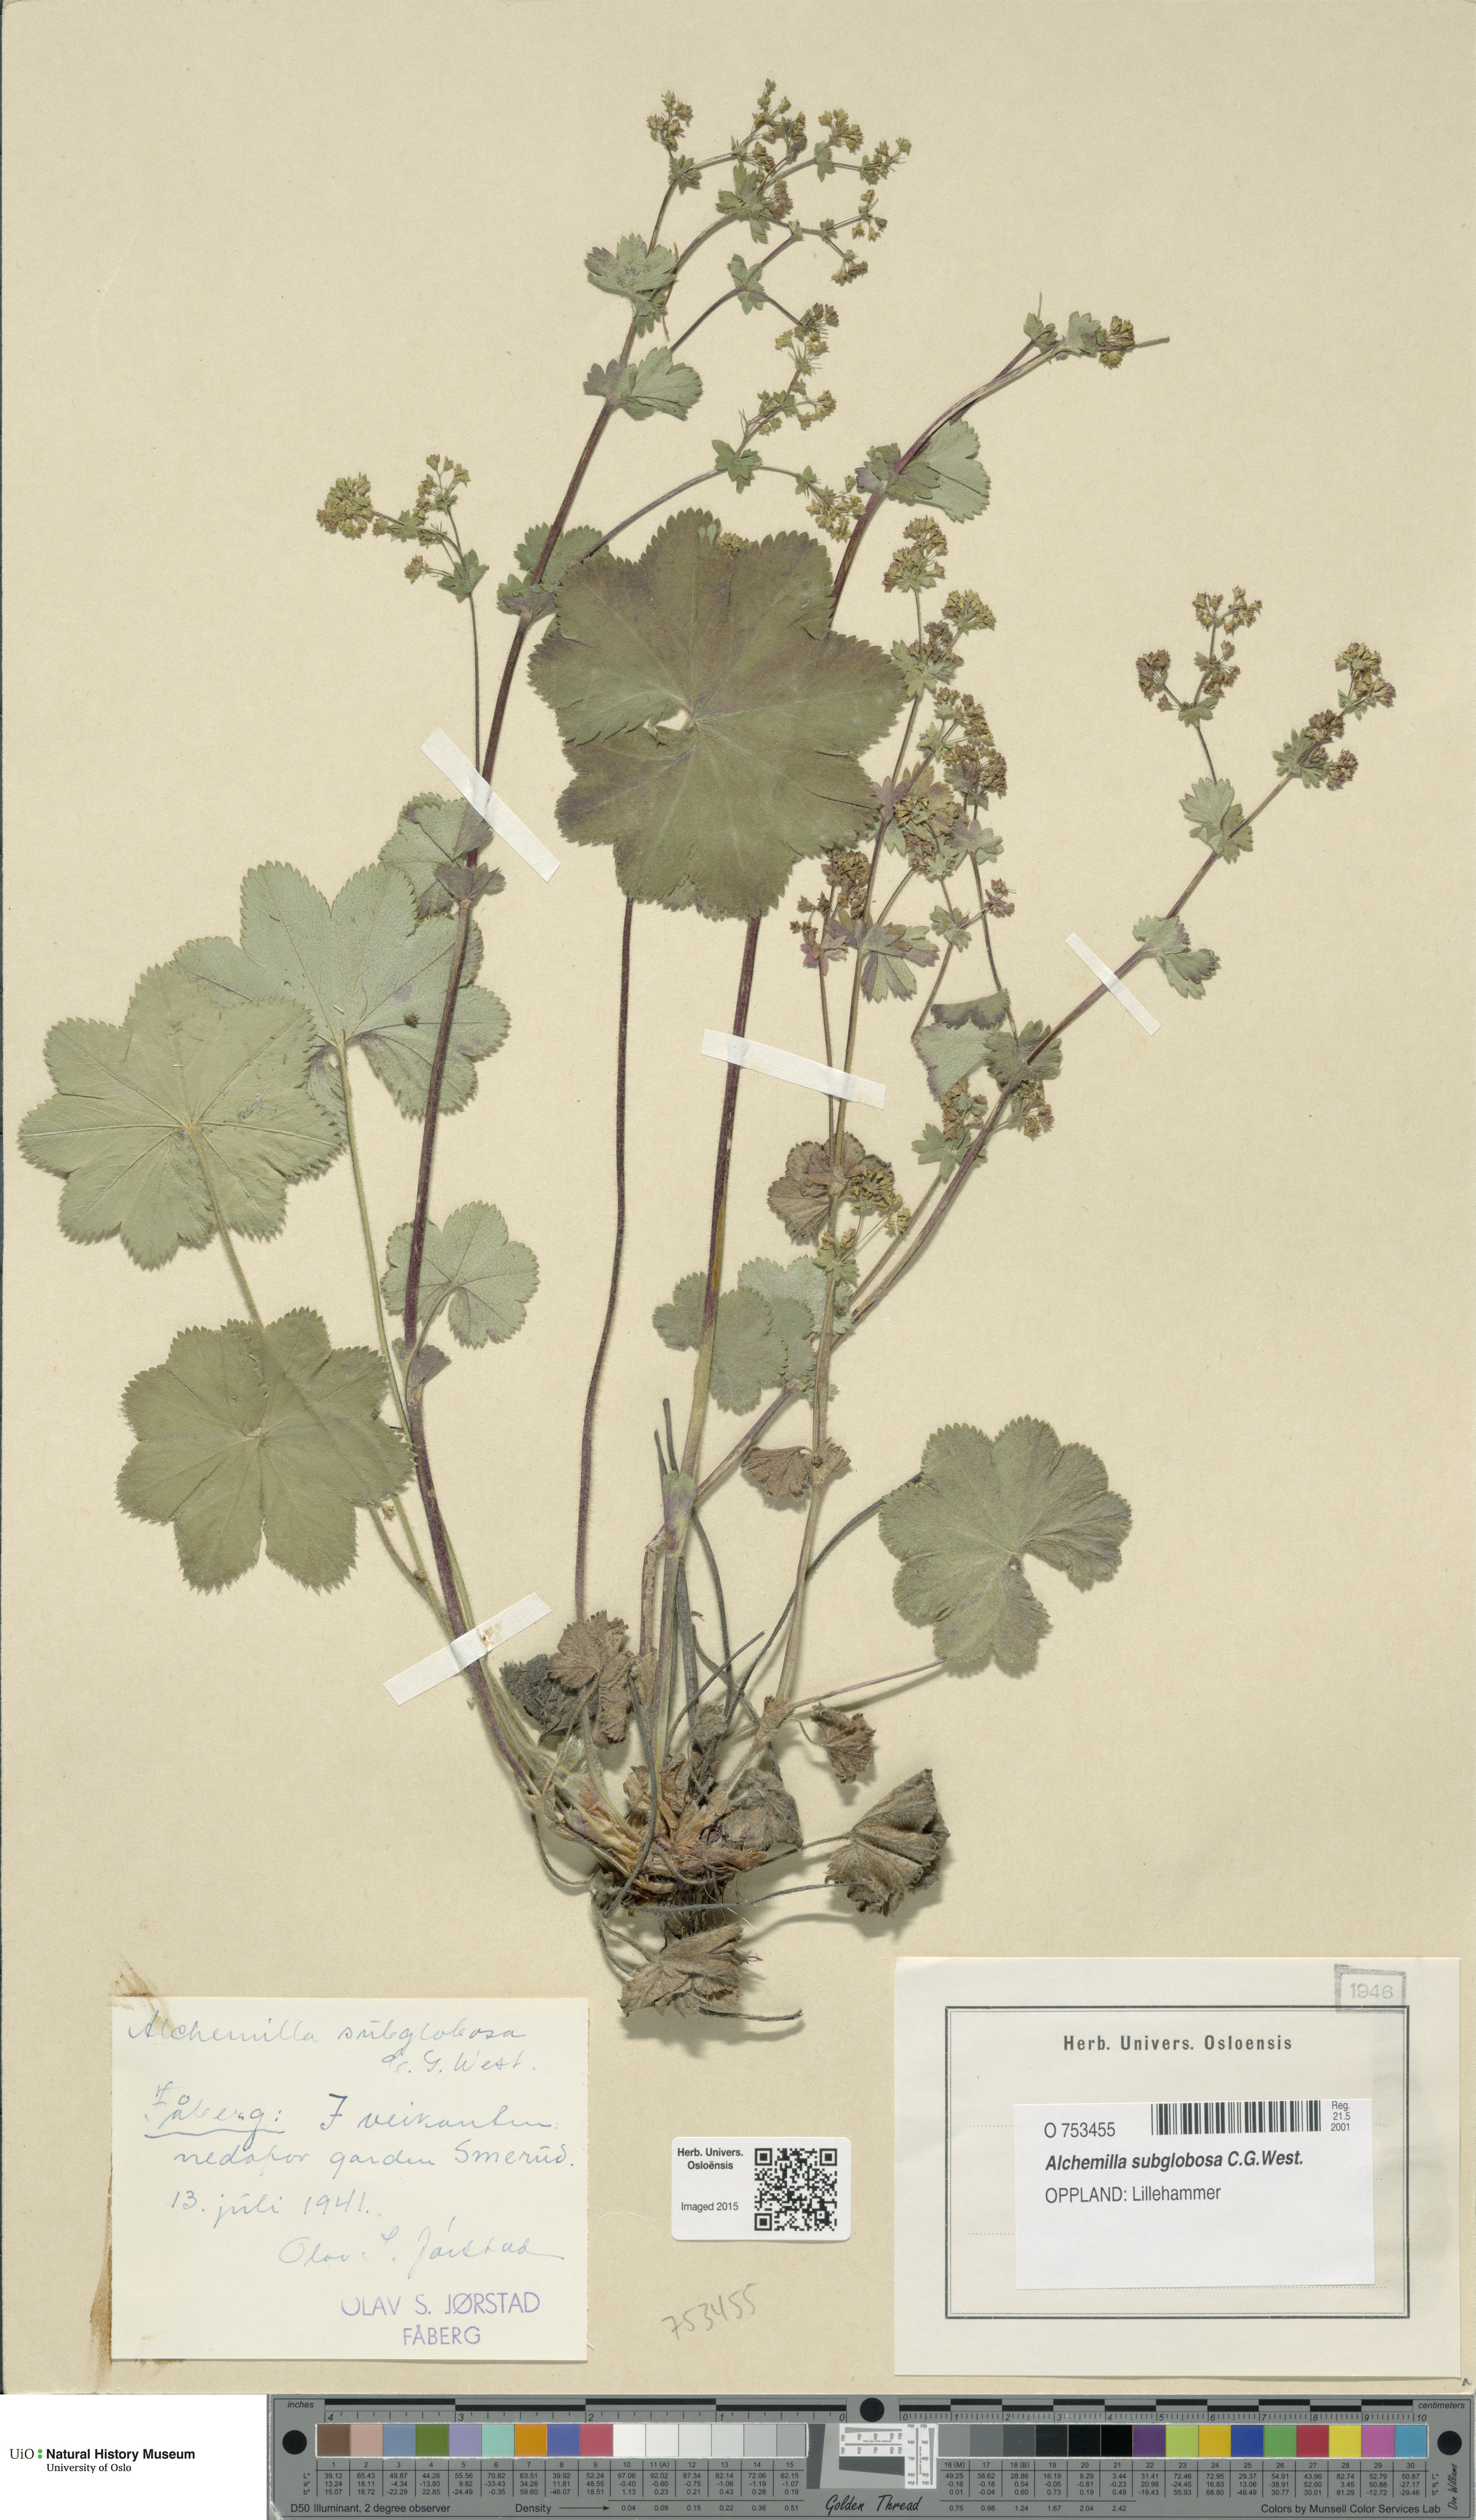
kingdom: Plantae
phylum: Tracheophyta
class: Magnoliopsida
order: Rosales
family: Rosaceae
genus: Alchemilla
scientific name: Alchemilla subglobosa
